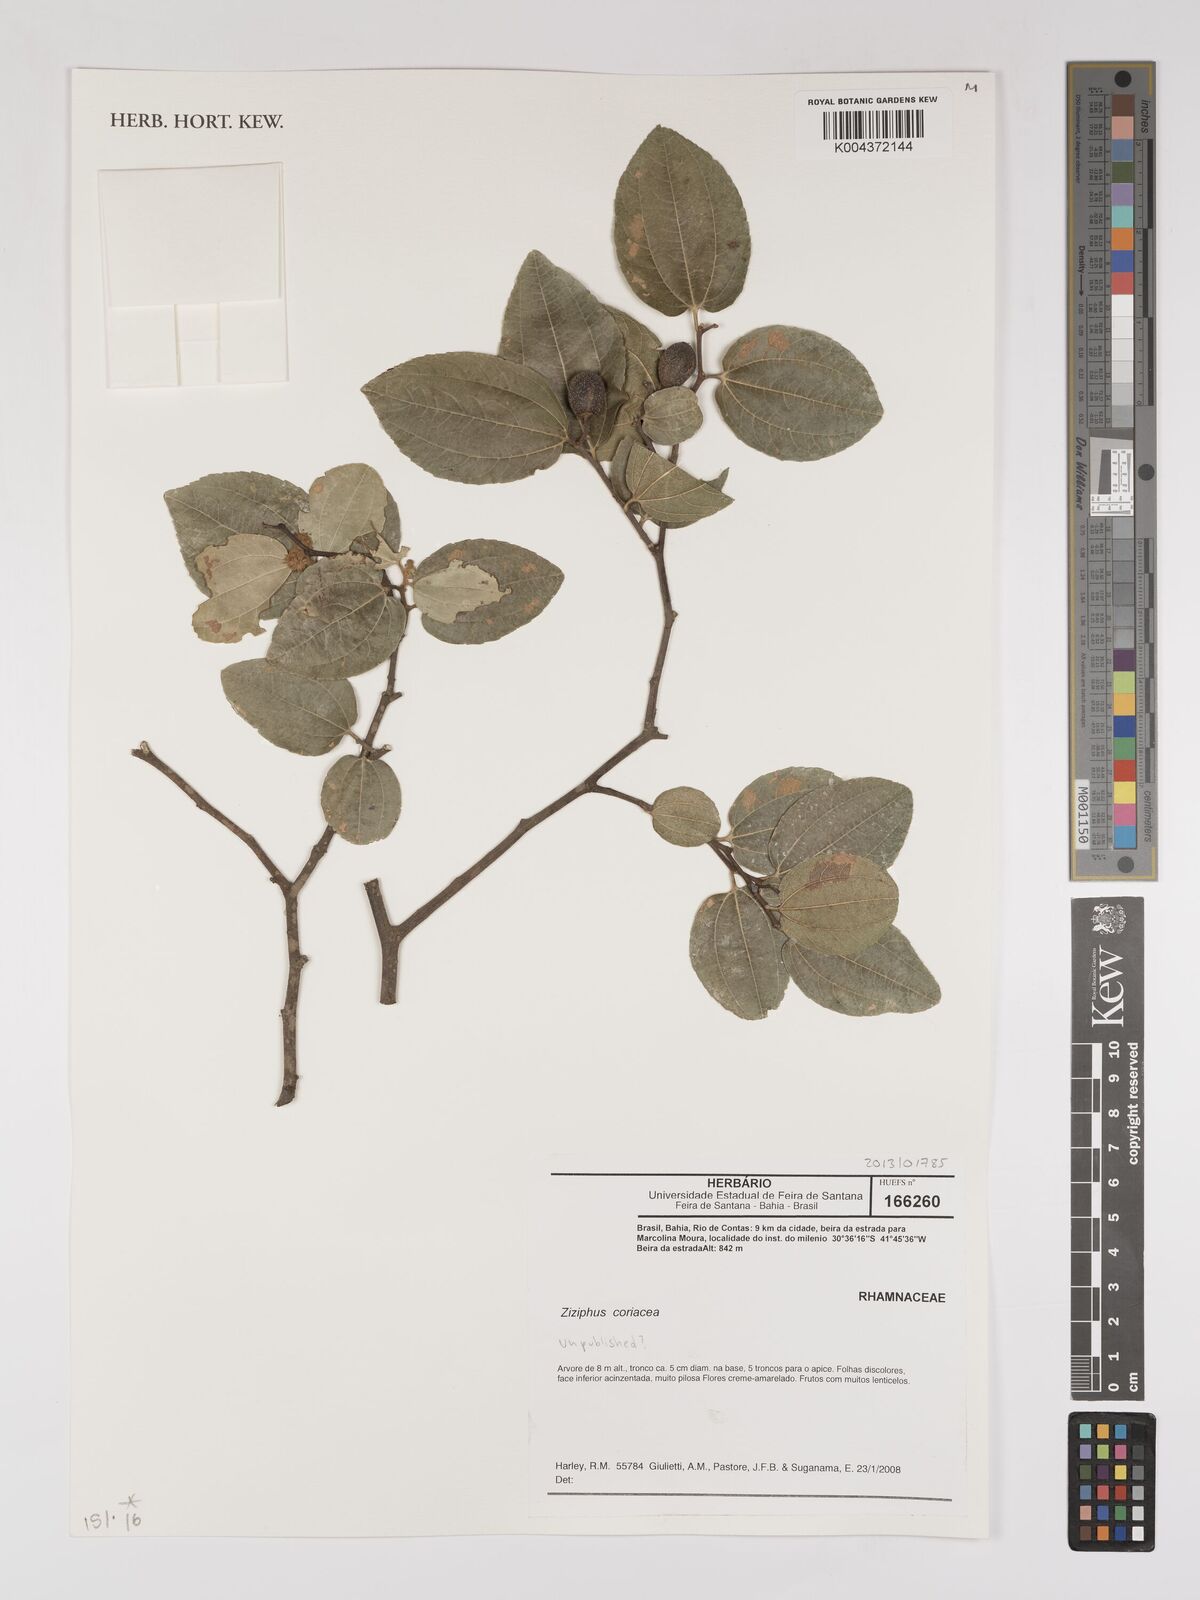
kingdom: Plantae
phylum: Tracheophyta
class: Magnoliopsida
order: Rosales
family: Rhamnaceae
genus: Ziziphus
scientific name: Ziziphus
